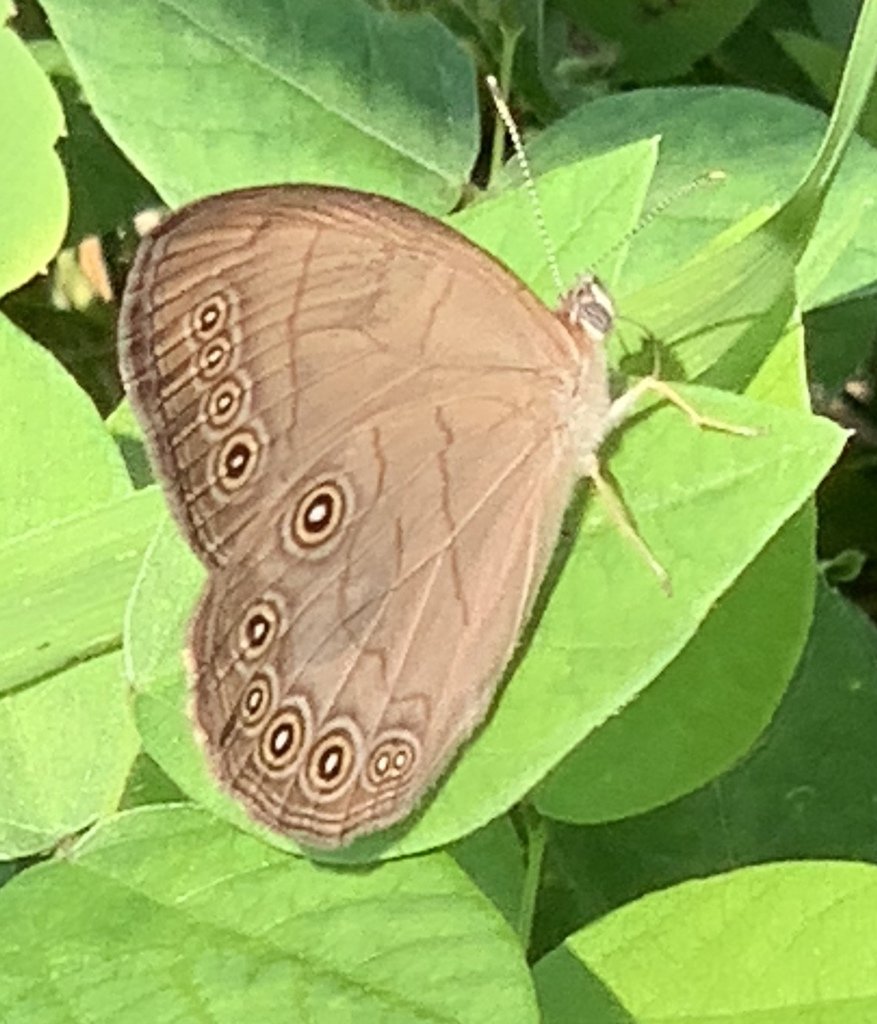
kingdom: Animalia
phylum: Arthropoda
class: Insecta
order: Lepidoptera
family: Nymphalidae
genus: Lethe
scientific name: Lethe eurydice
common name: Appalachian Eyed Brown
